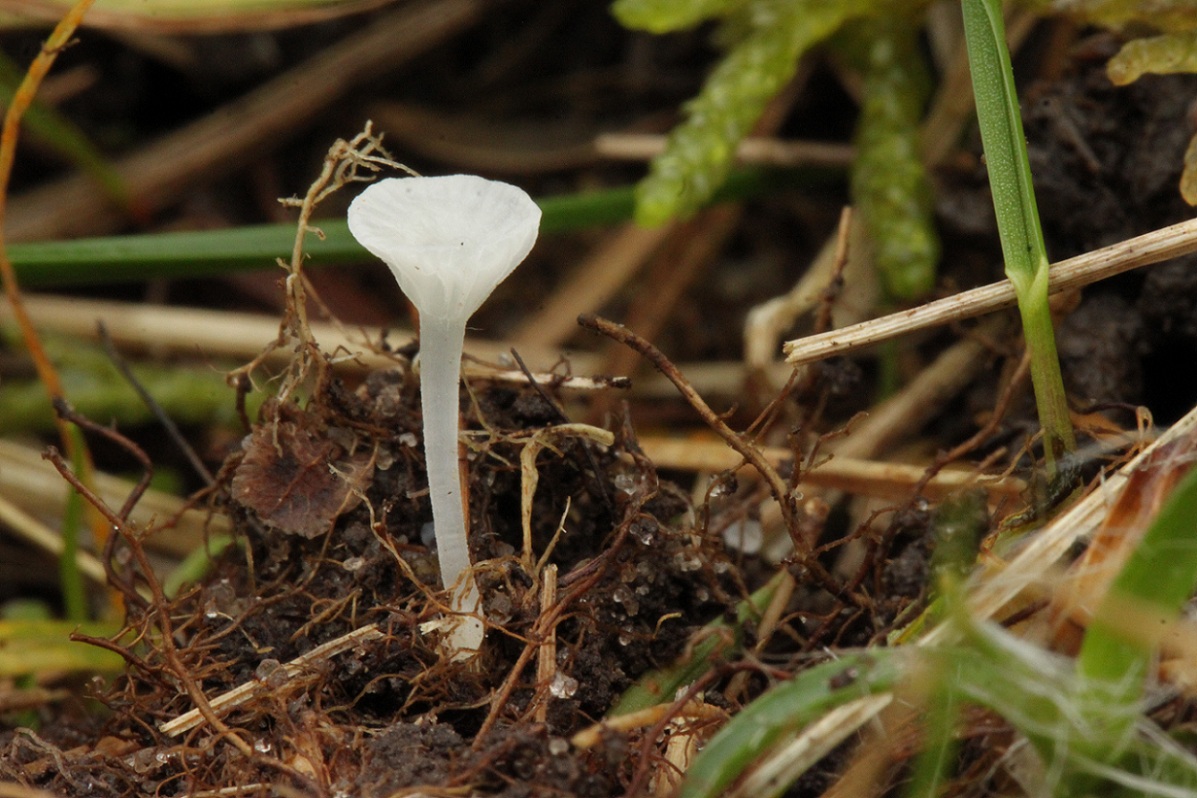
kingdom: Fungi
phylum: Basidiomycota
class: Agaricomycetes
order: Agaricales
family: Mycenaceae
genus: Atheniella
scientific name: Atheniella delectabilis
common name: nitrøs huesvamp
